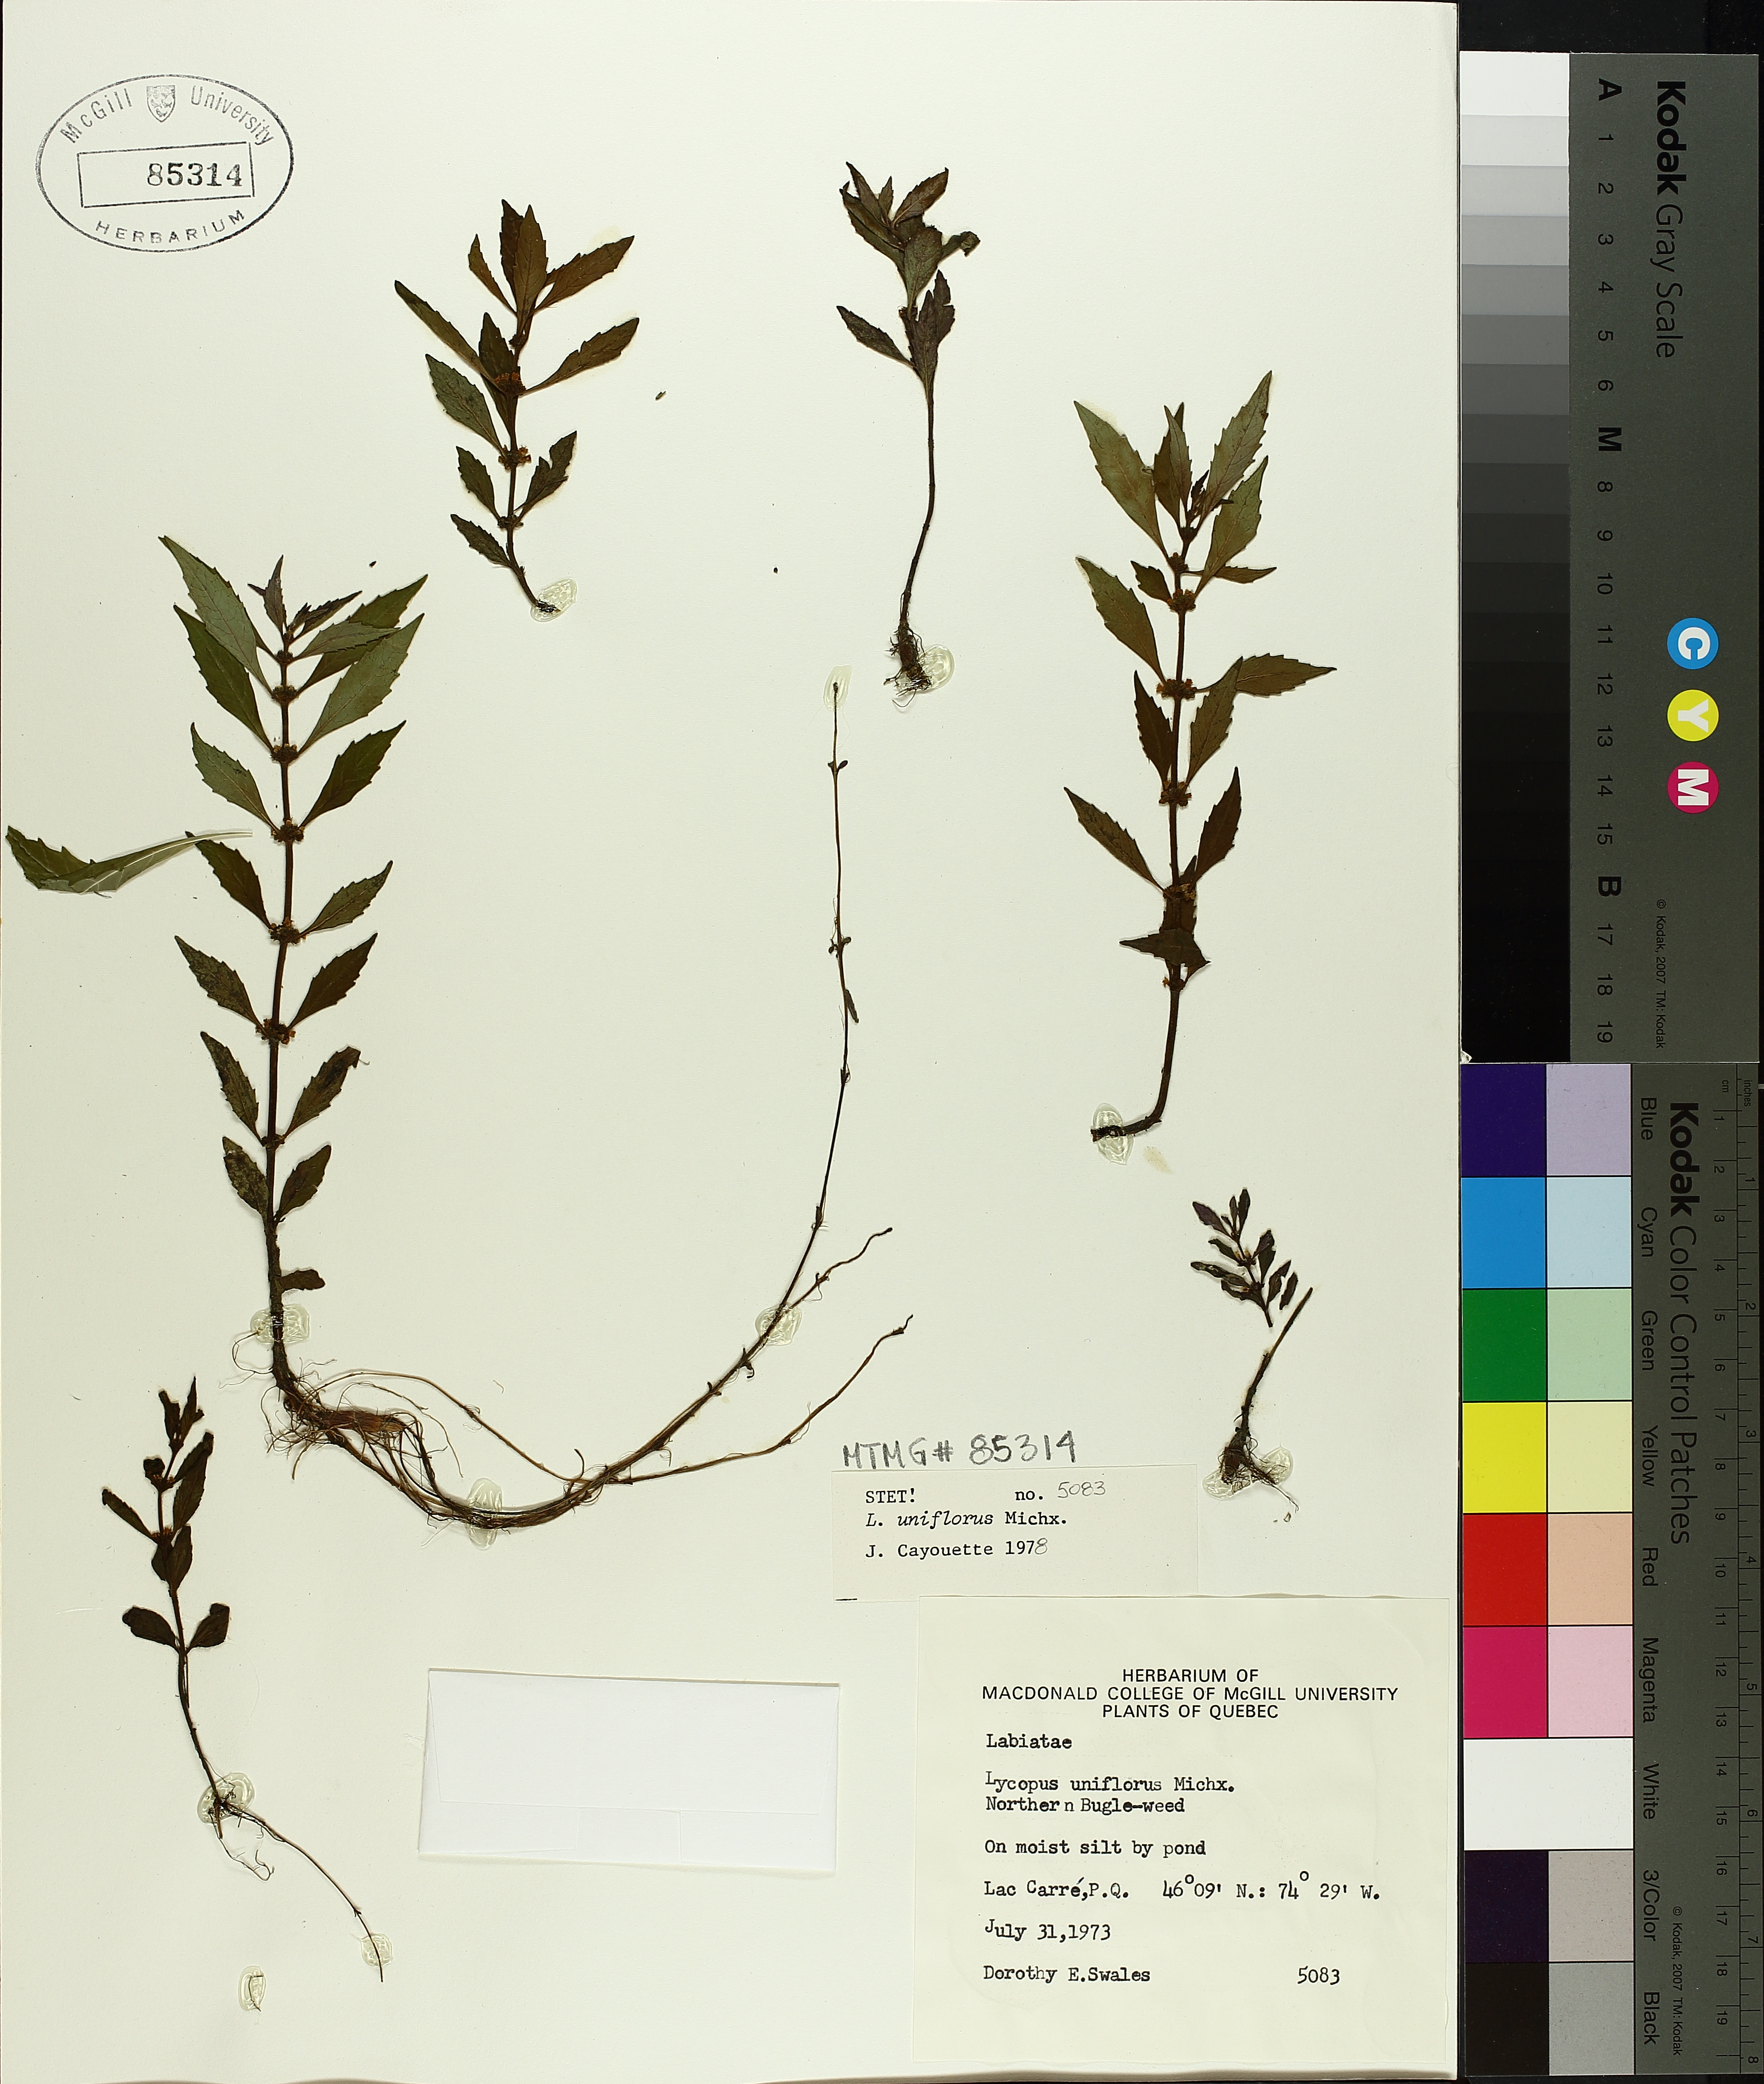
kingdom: Plantae
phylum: Tracheophyta
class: Magnoliopsida
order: Lamiales
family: Lamiaceae
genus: Lycopus
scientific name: Lycopus uniflorus
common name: Northern bugleweed
